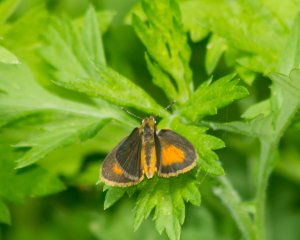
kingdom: Animalia
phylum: Arthropoda
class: Insecta
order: Lepidoptera
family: Hesperiidae
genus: Ancyloxypha
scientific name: Ancyloxypha numitor
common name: Least Skipper
